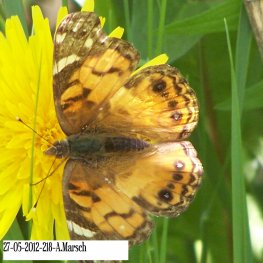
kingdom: Animalia
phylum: Arthropoda
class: Insecta
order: Lepidoptera
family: Nymphalidae
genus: Vanessa
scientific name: Vanessa virginiensis
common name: American Lady
